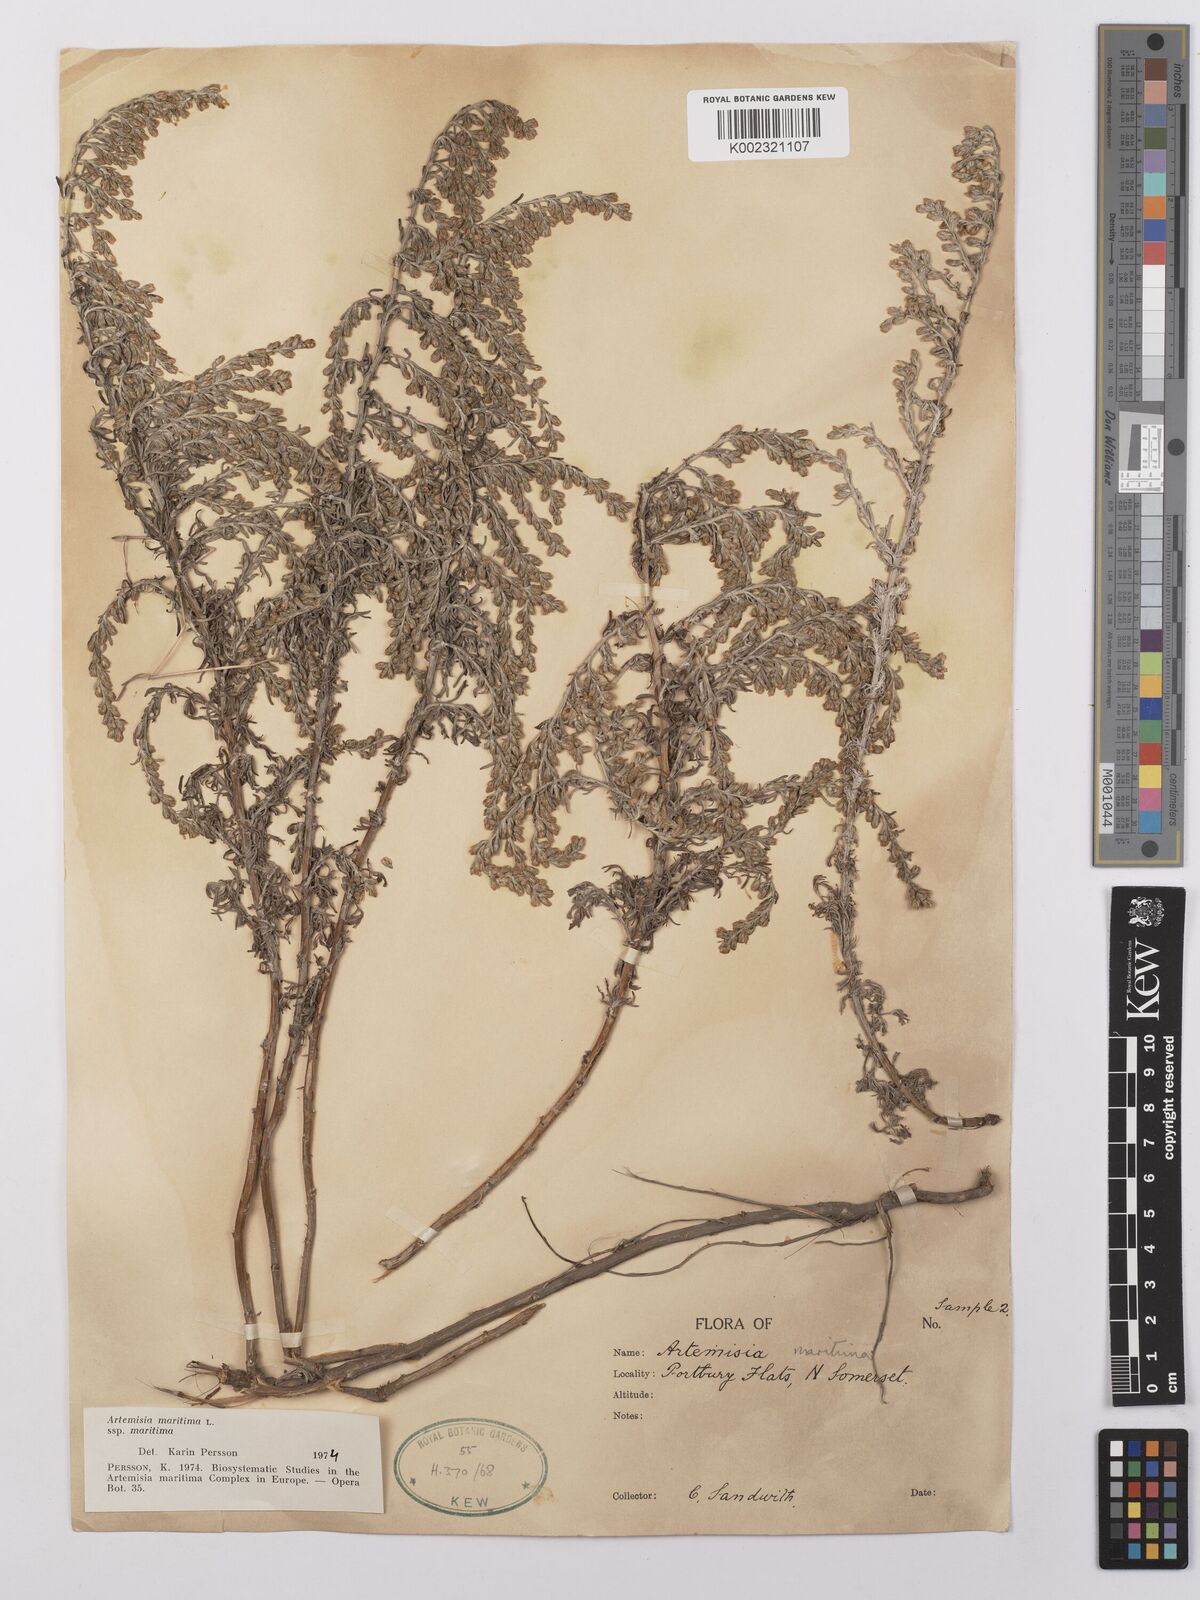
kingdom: Plantae
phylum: Tracheophyta
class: Magnoliopsida
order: Asterales
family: Asteraceae
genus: Artemisia
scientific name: Artemisia maritima
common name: Wormseed
